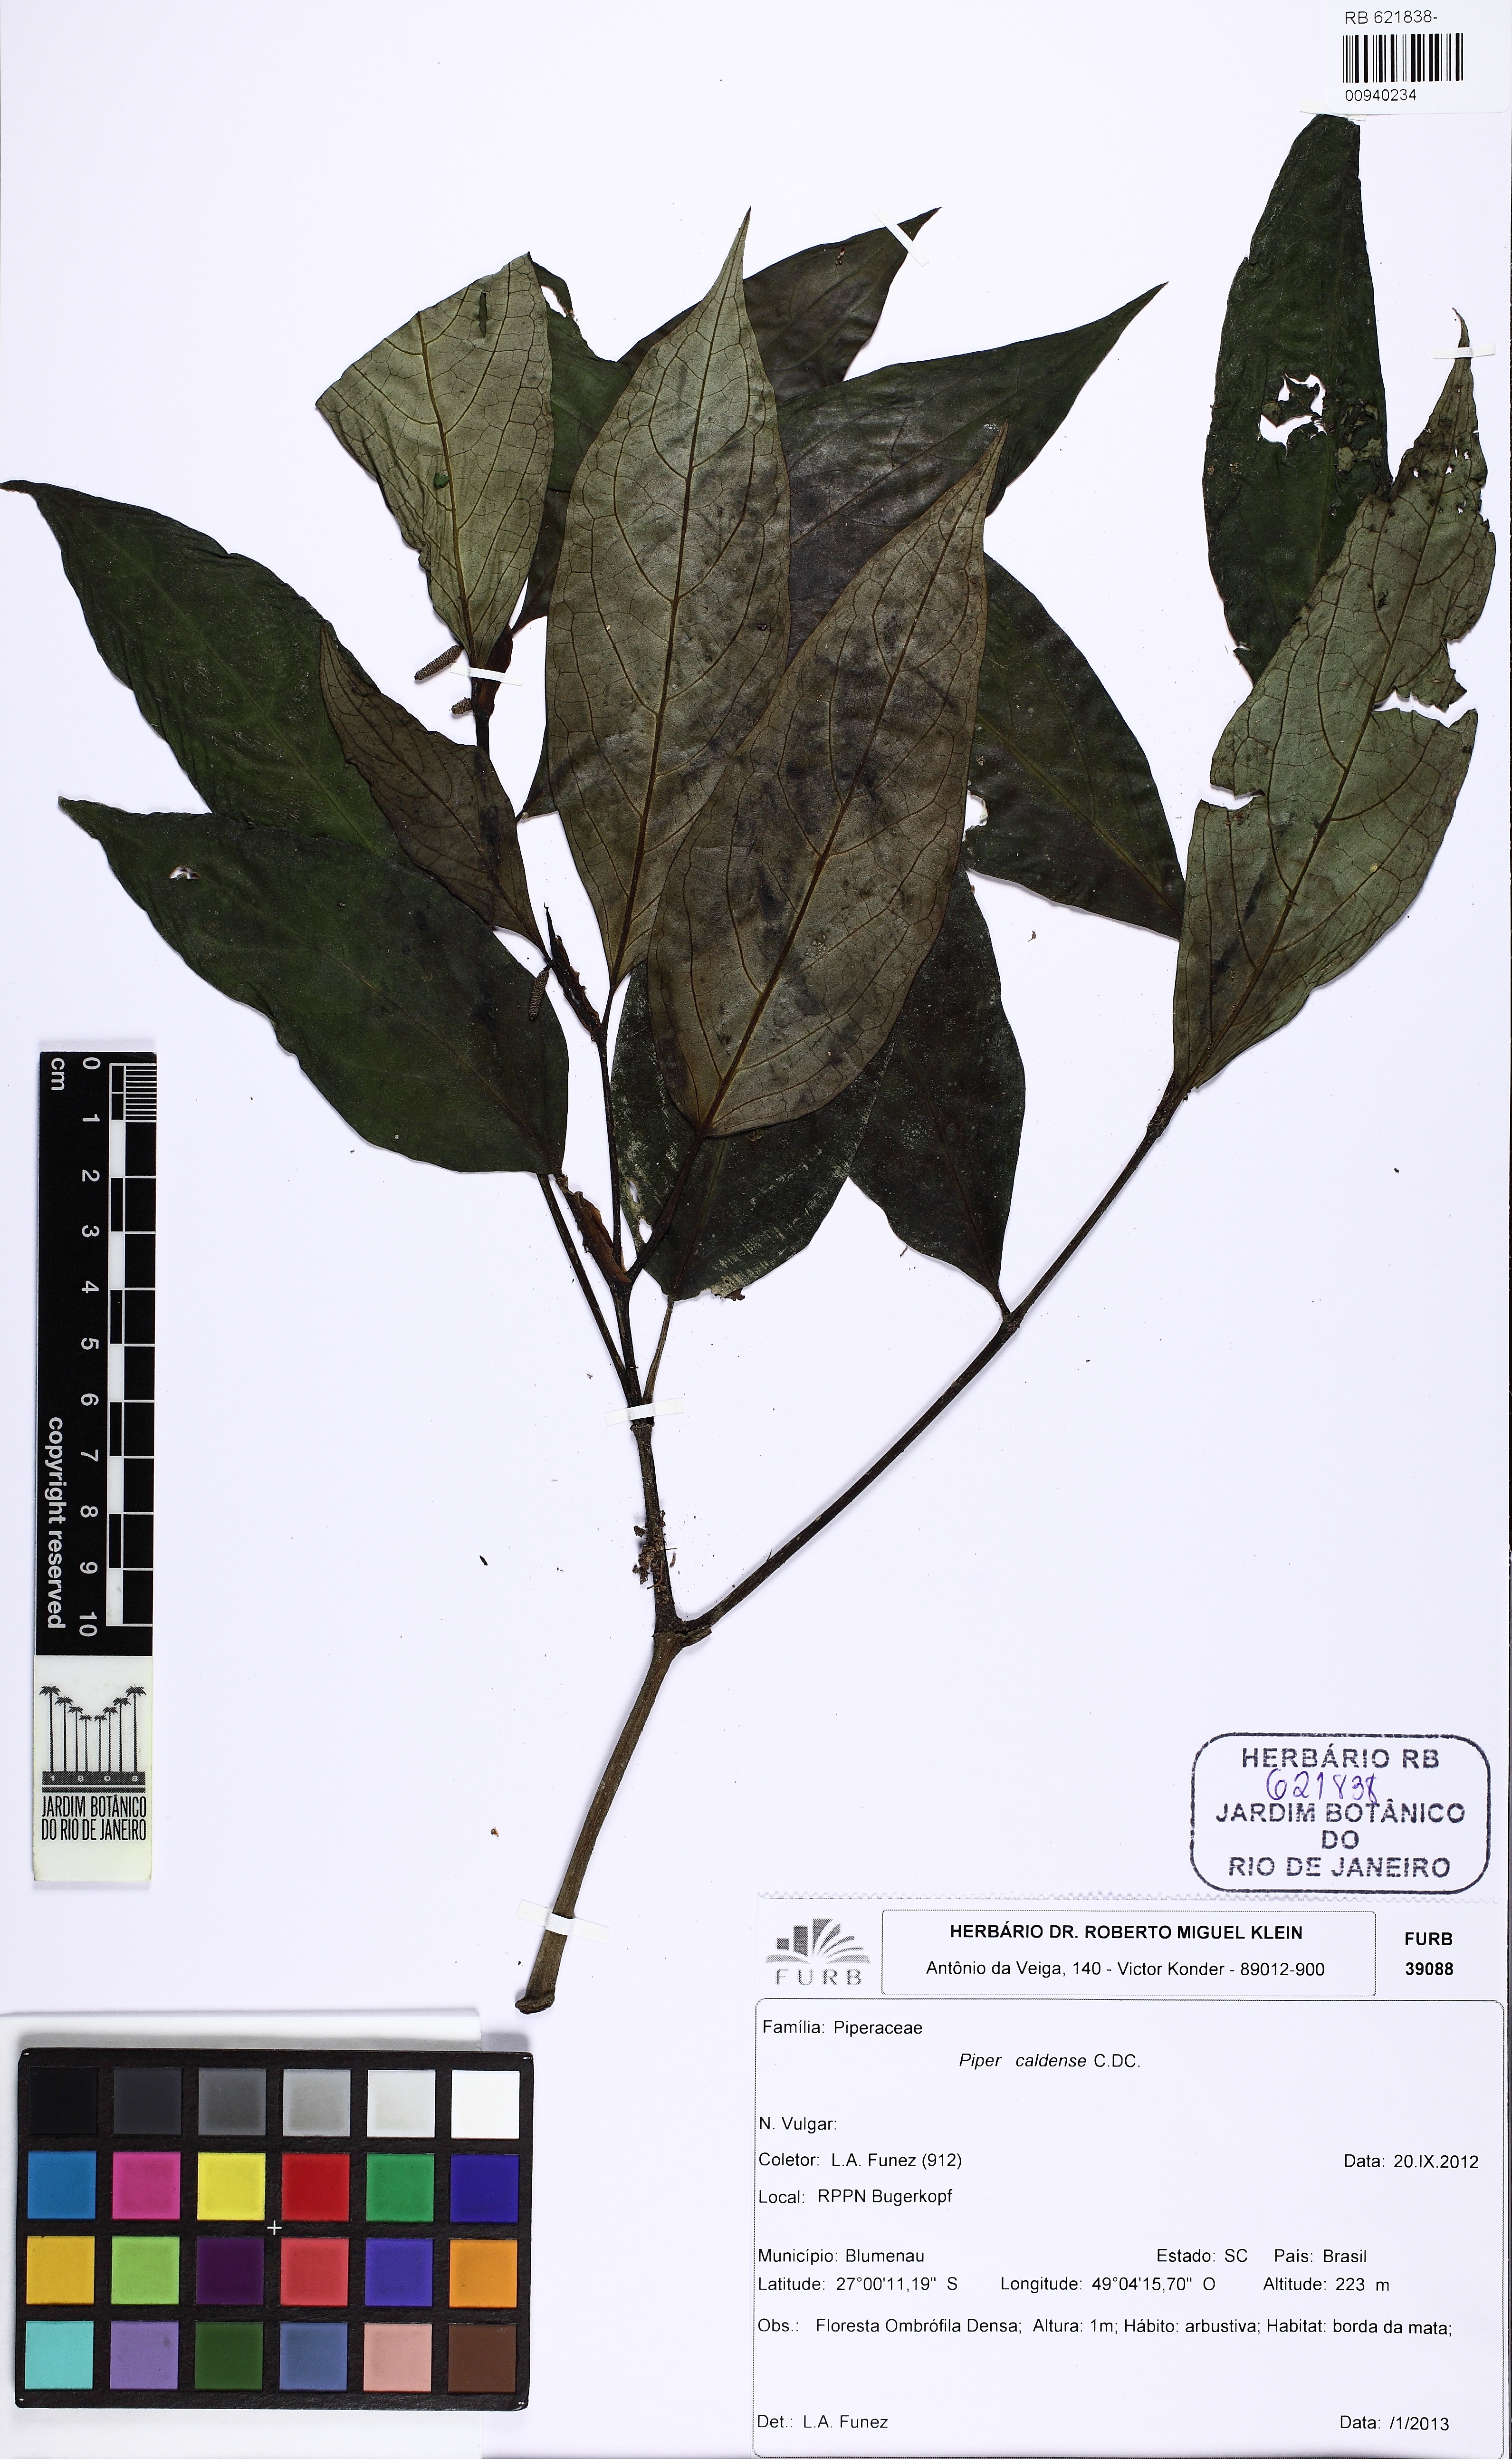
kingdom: Plantae
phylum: Tracheophyta
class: Magnoliopsida
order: Piperales
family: Piperaceae
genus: Piper
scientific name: Piper caldense
